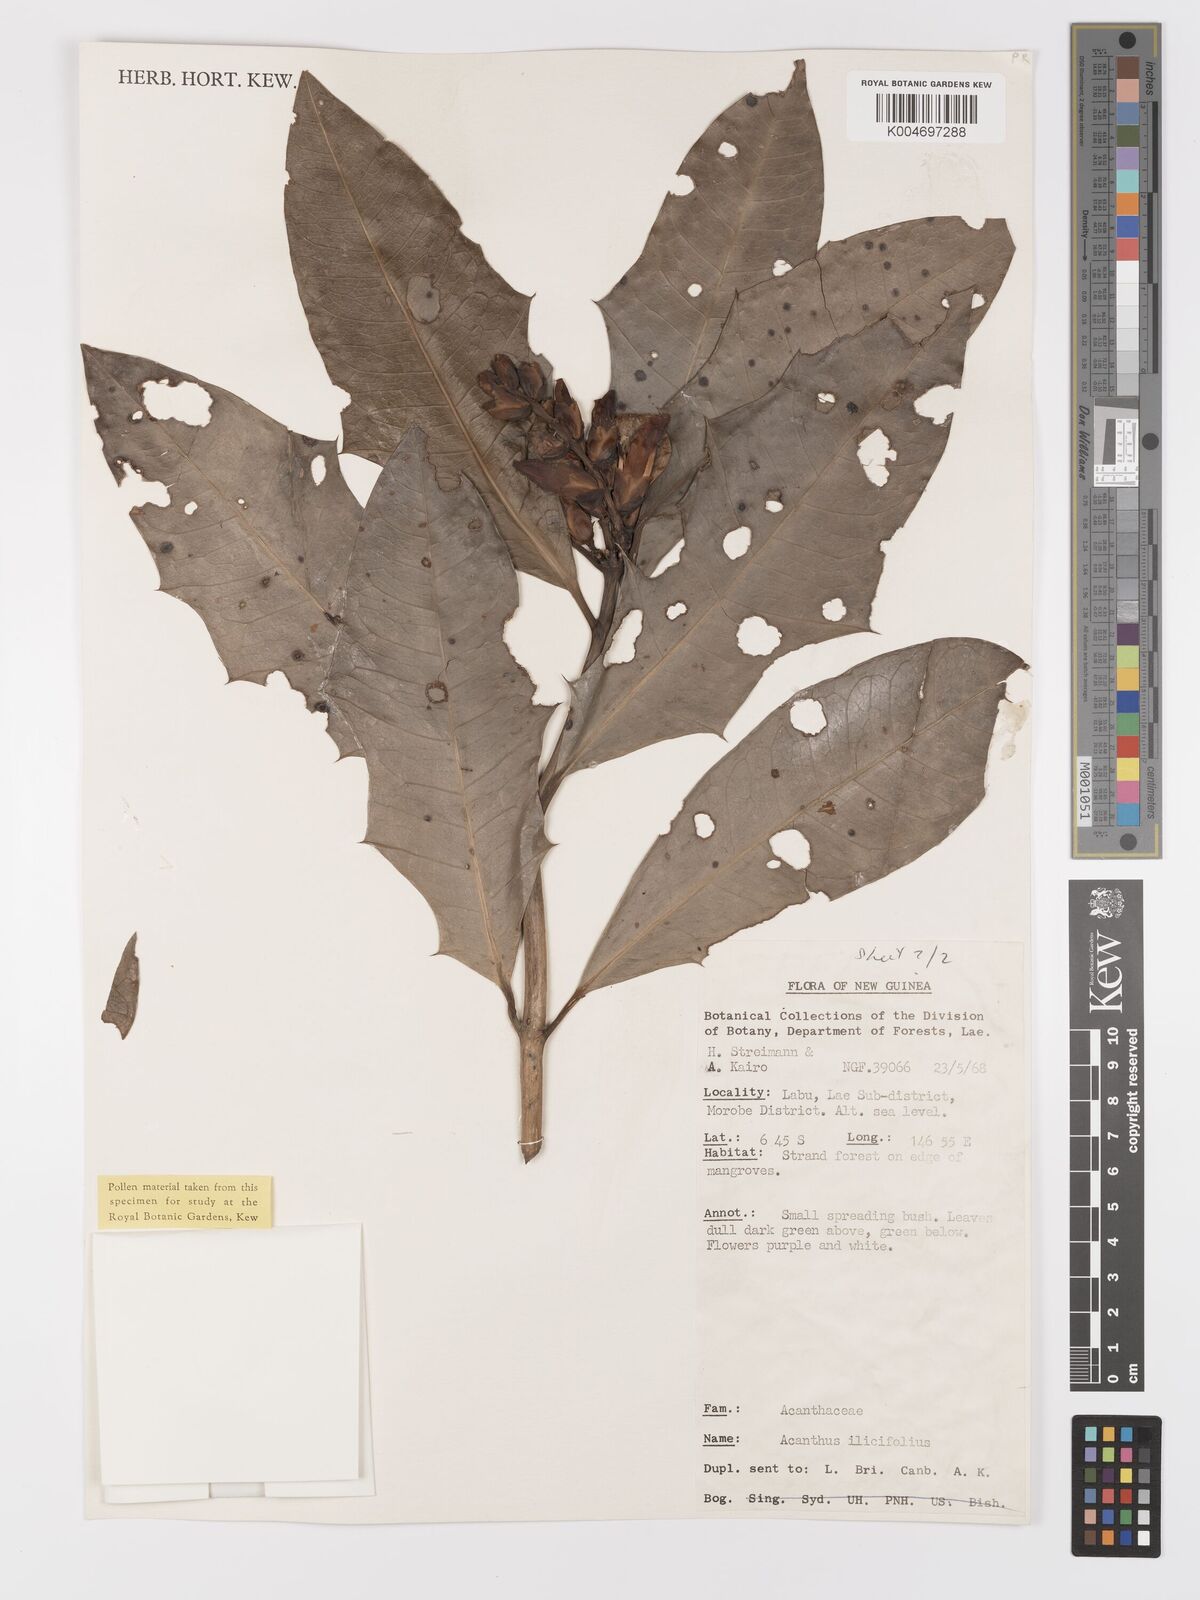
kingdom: Plantae
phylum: Tracheophyta
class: Magnoliopsida
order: Lamiales
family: Acanthaceae
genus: Acanthus
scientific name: Acanthus ilicifolius
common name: Holy mangrove
